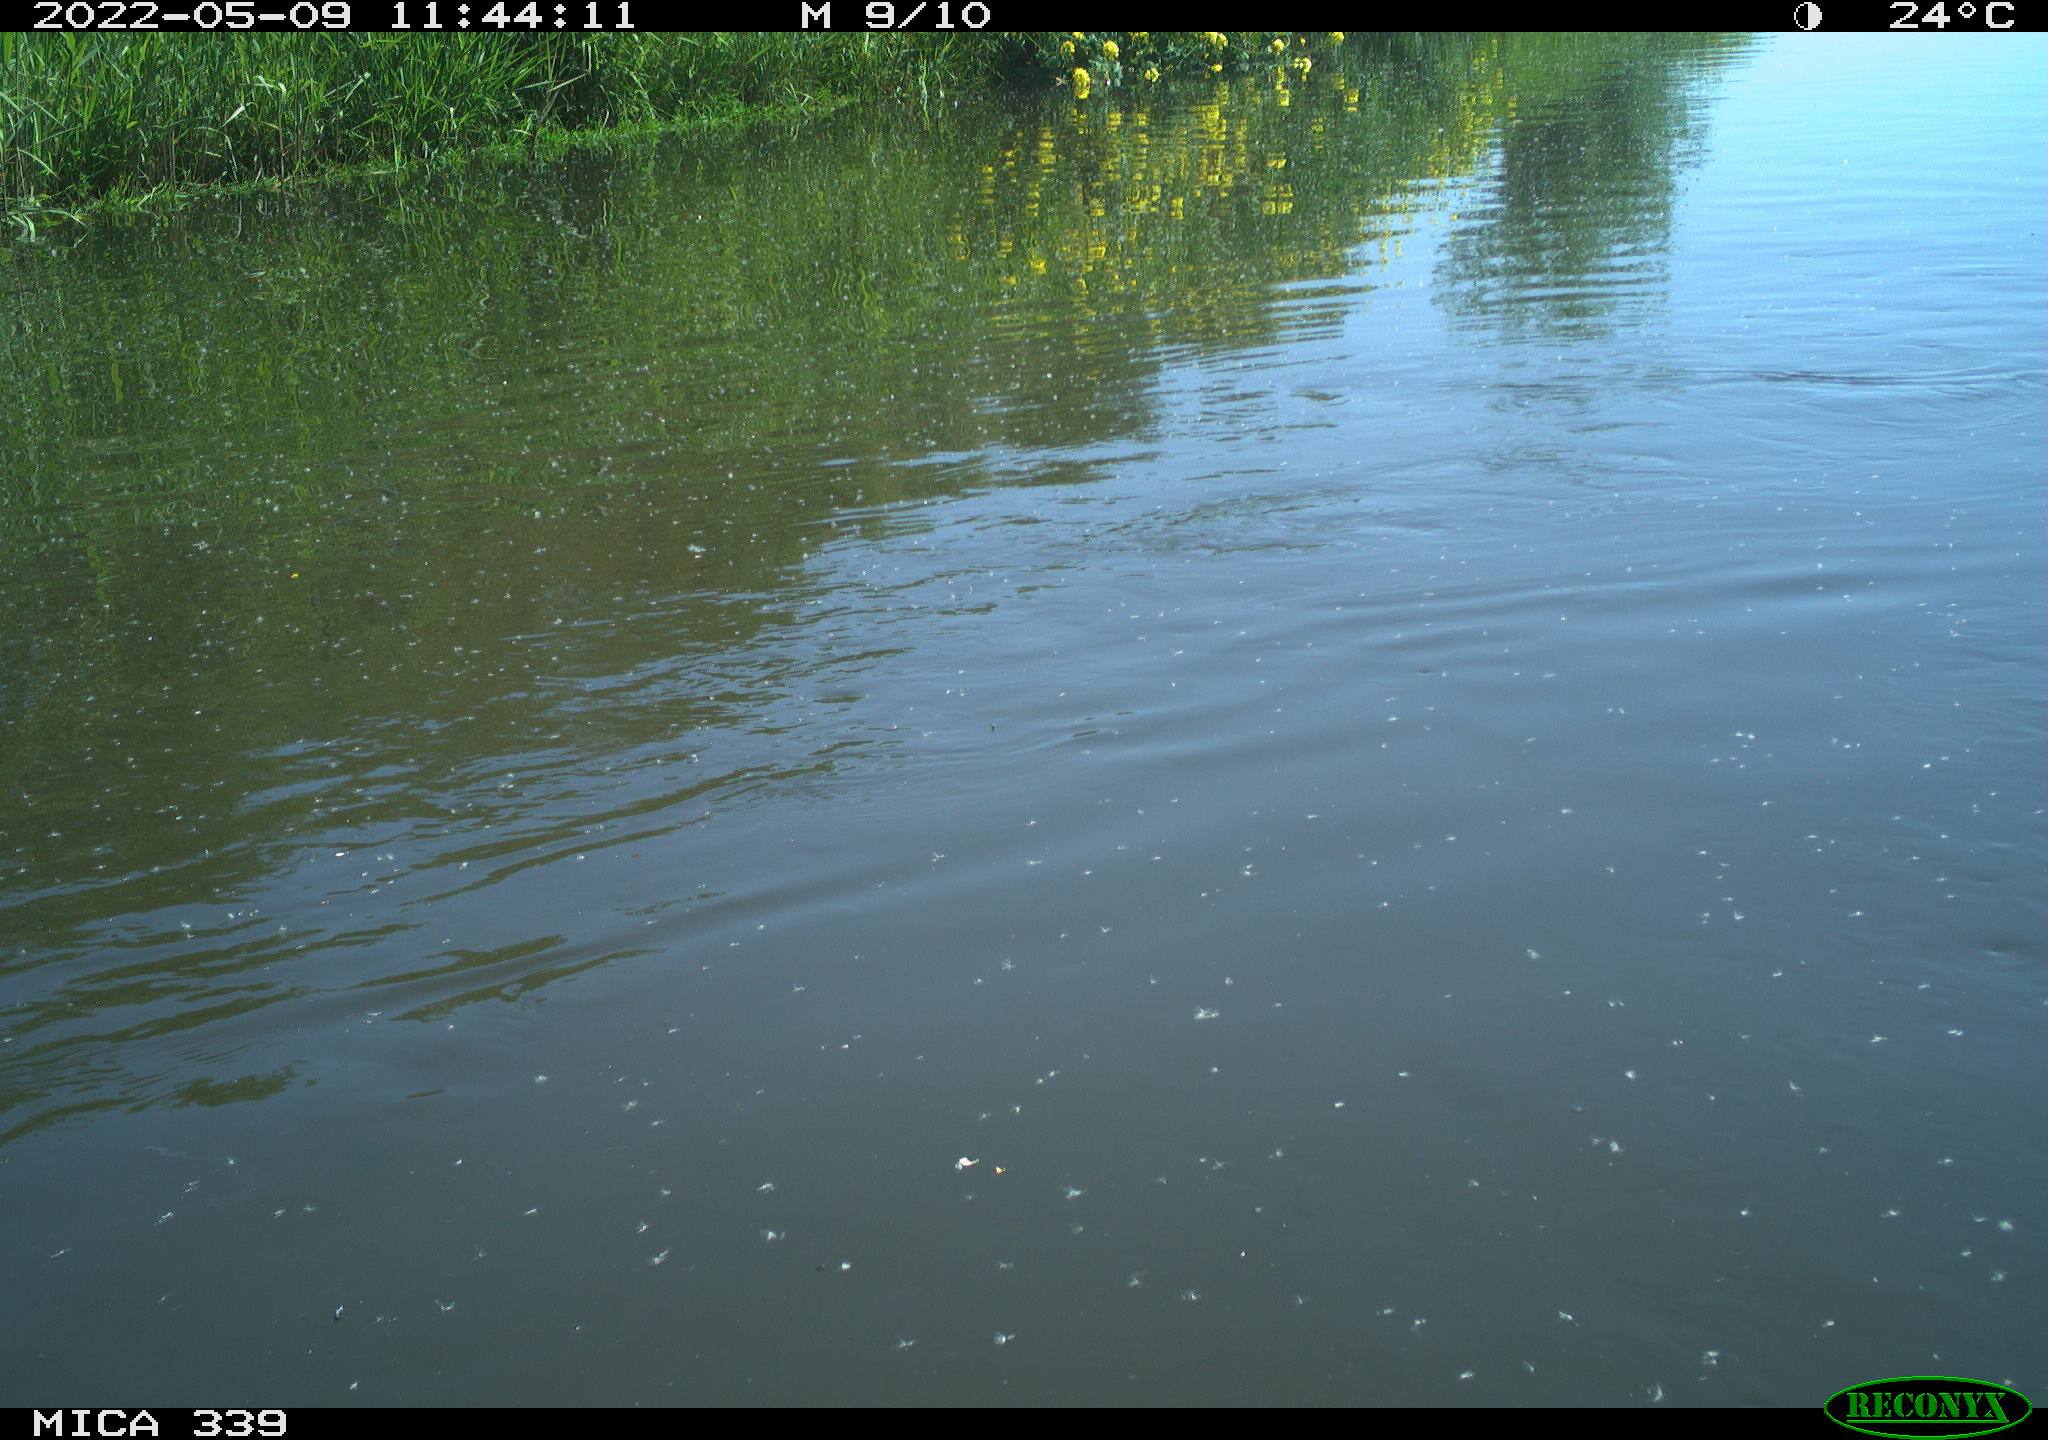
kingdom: Animalia
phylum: Chordata
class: Aves
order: Gruiformes
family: Rallidae
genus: Fulica
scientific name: Fulica atra
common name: Eurasian coot
